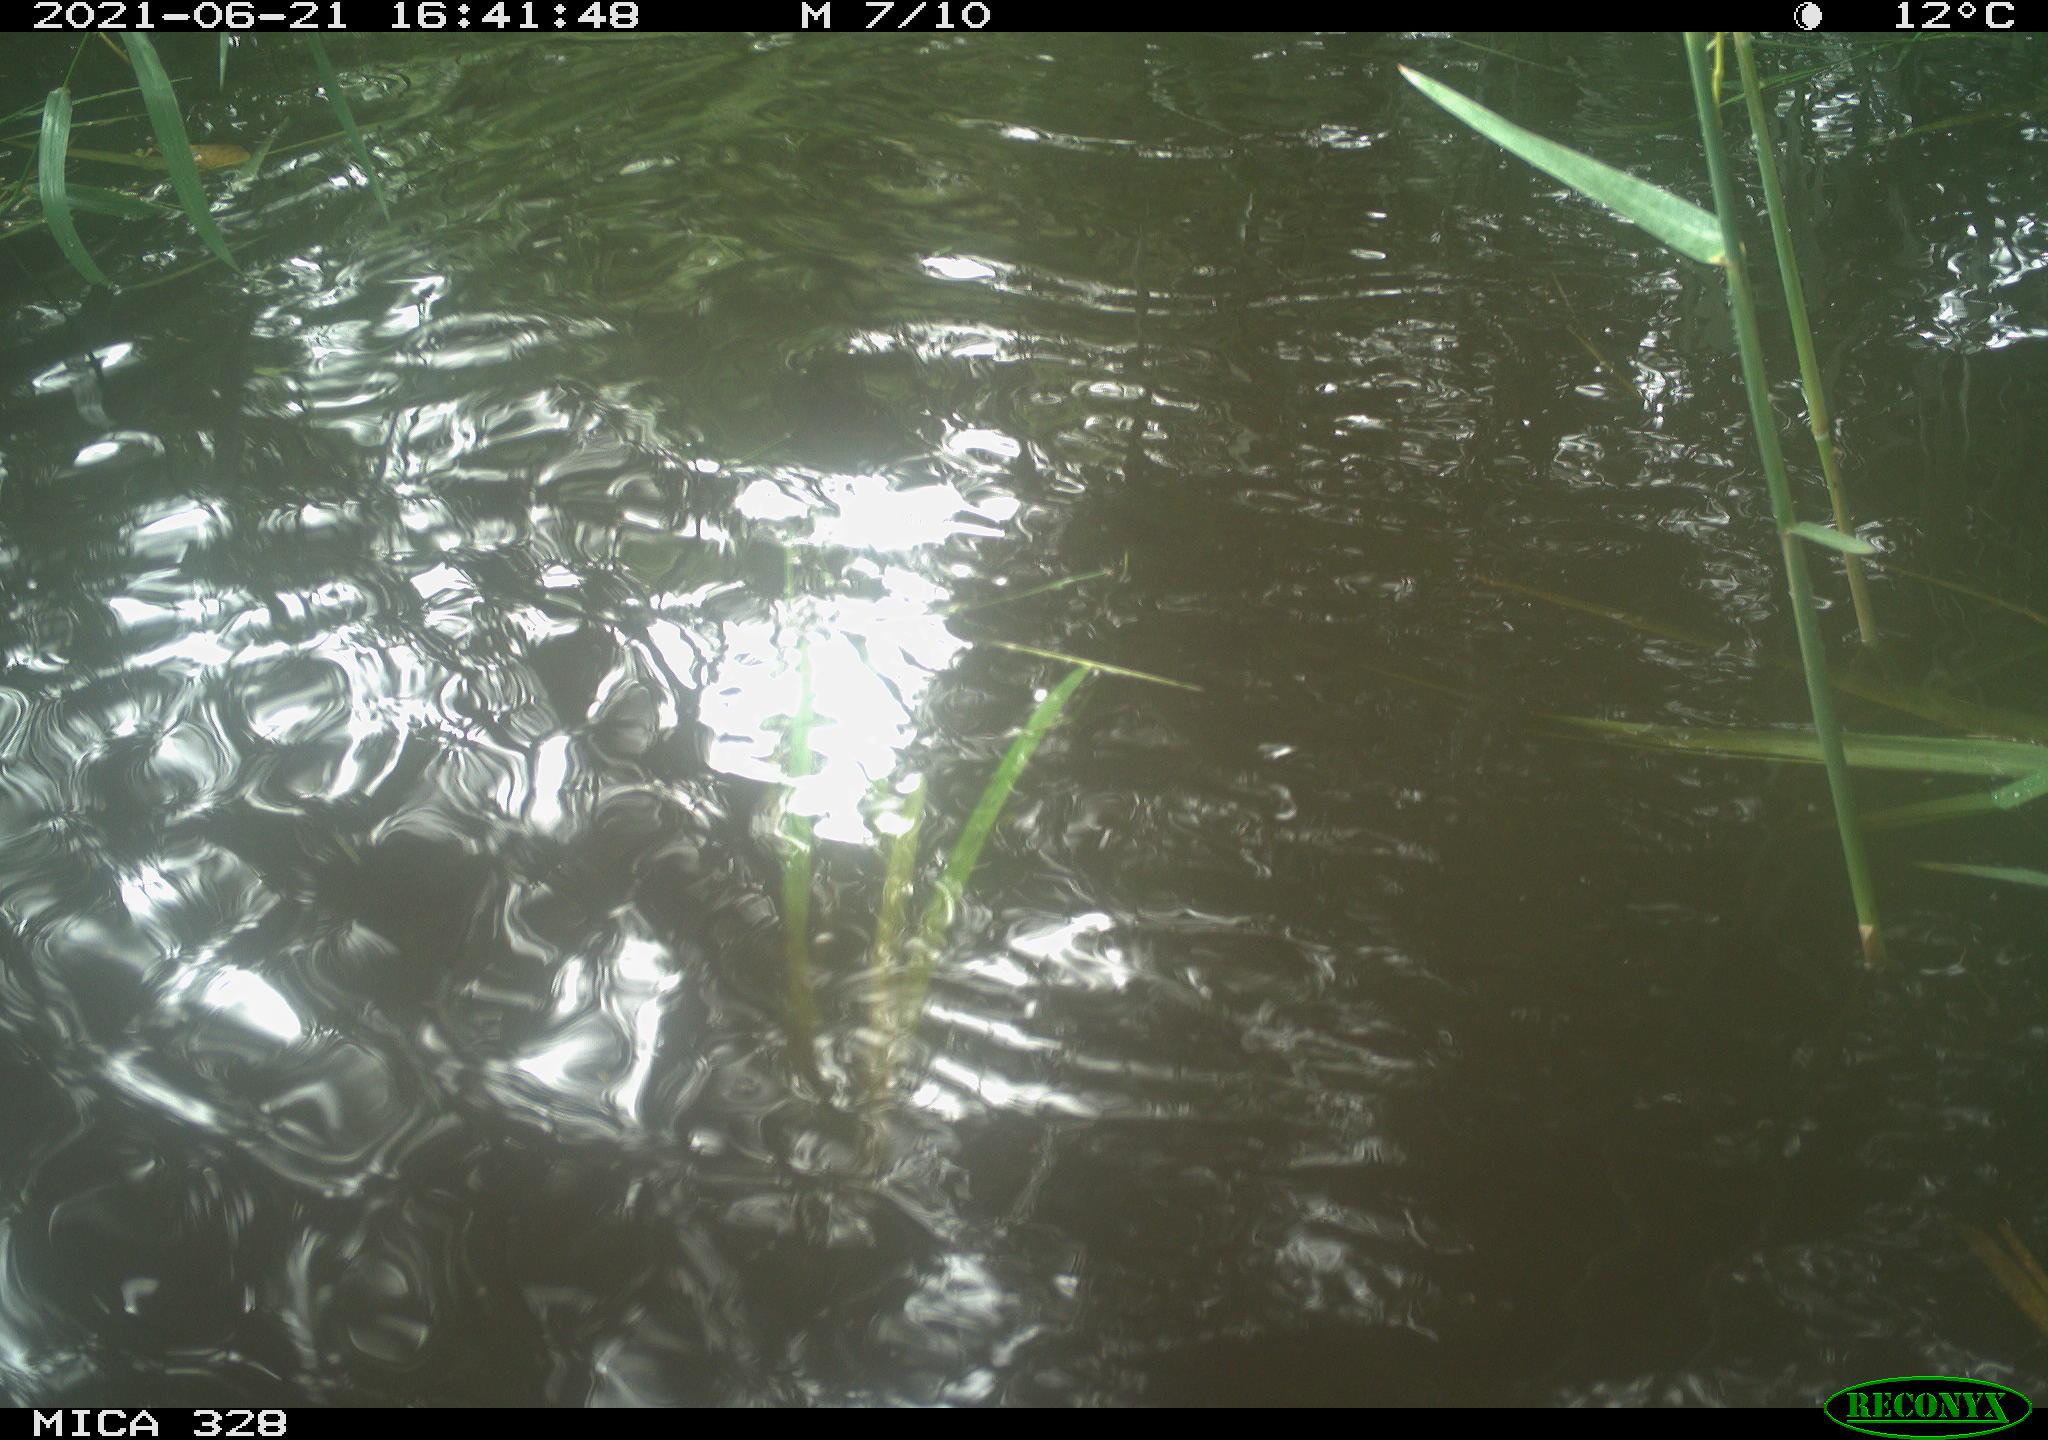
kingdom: Animalia
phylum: Chordata
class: Mammalia
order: Rodentia
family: Cricetidae
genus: Ondatra
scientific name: Ondatra zibethicus
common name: Muskrat
